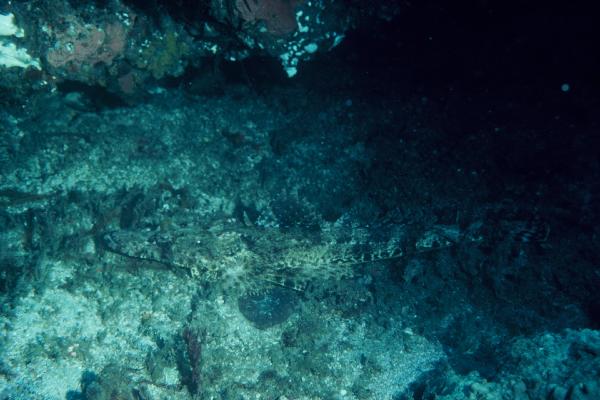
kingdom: Animalia
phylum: Chordata
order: Scorpaeniformes
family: Platycephalidae
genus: Cociella
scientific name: Cociella crocodilus
